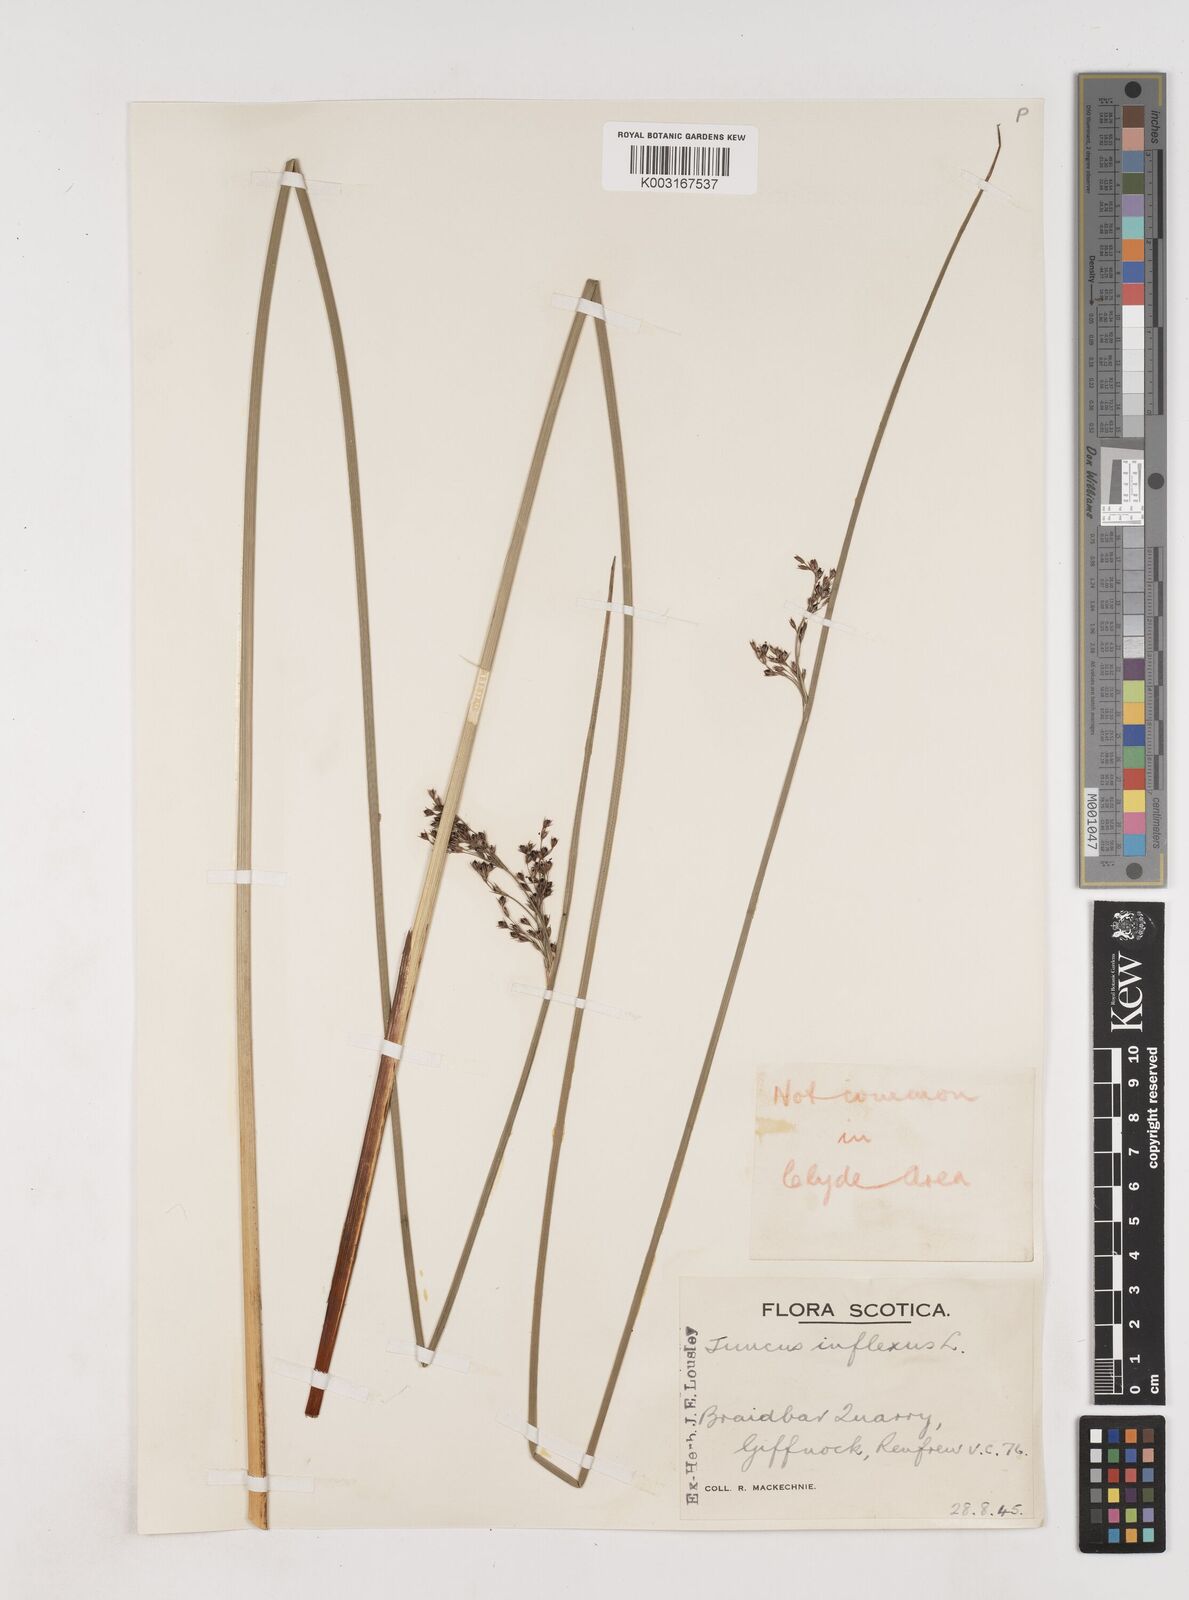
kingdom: Plantae
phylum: Tracheophyta
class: Liliopsida
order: Poales
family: Juncaceae
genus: Juncus
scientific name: Juncus inflexus
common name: Hard rush
